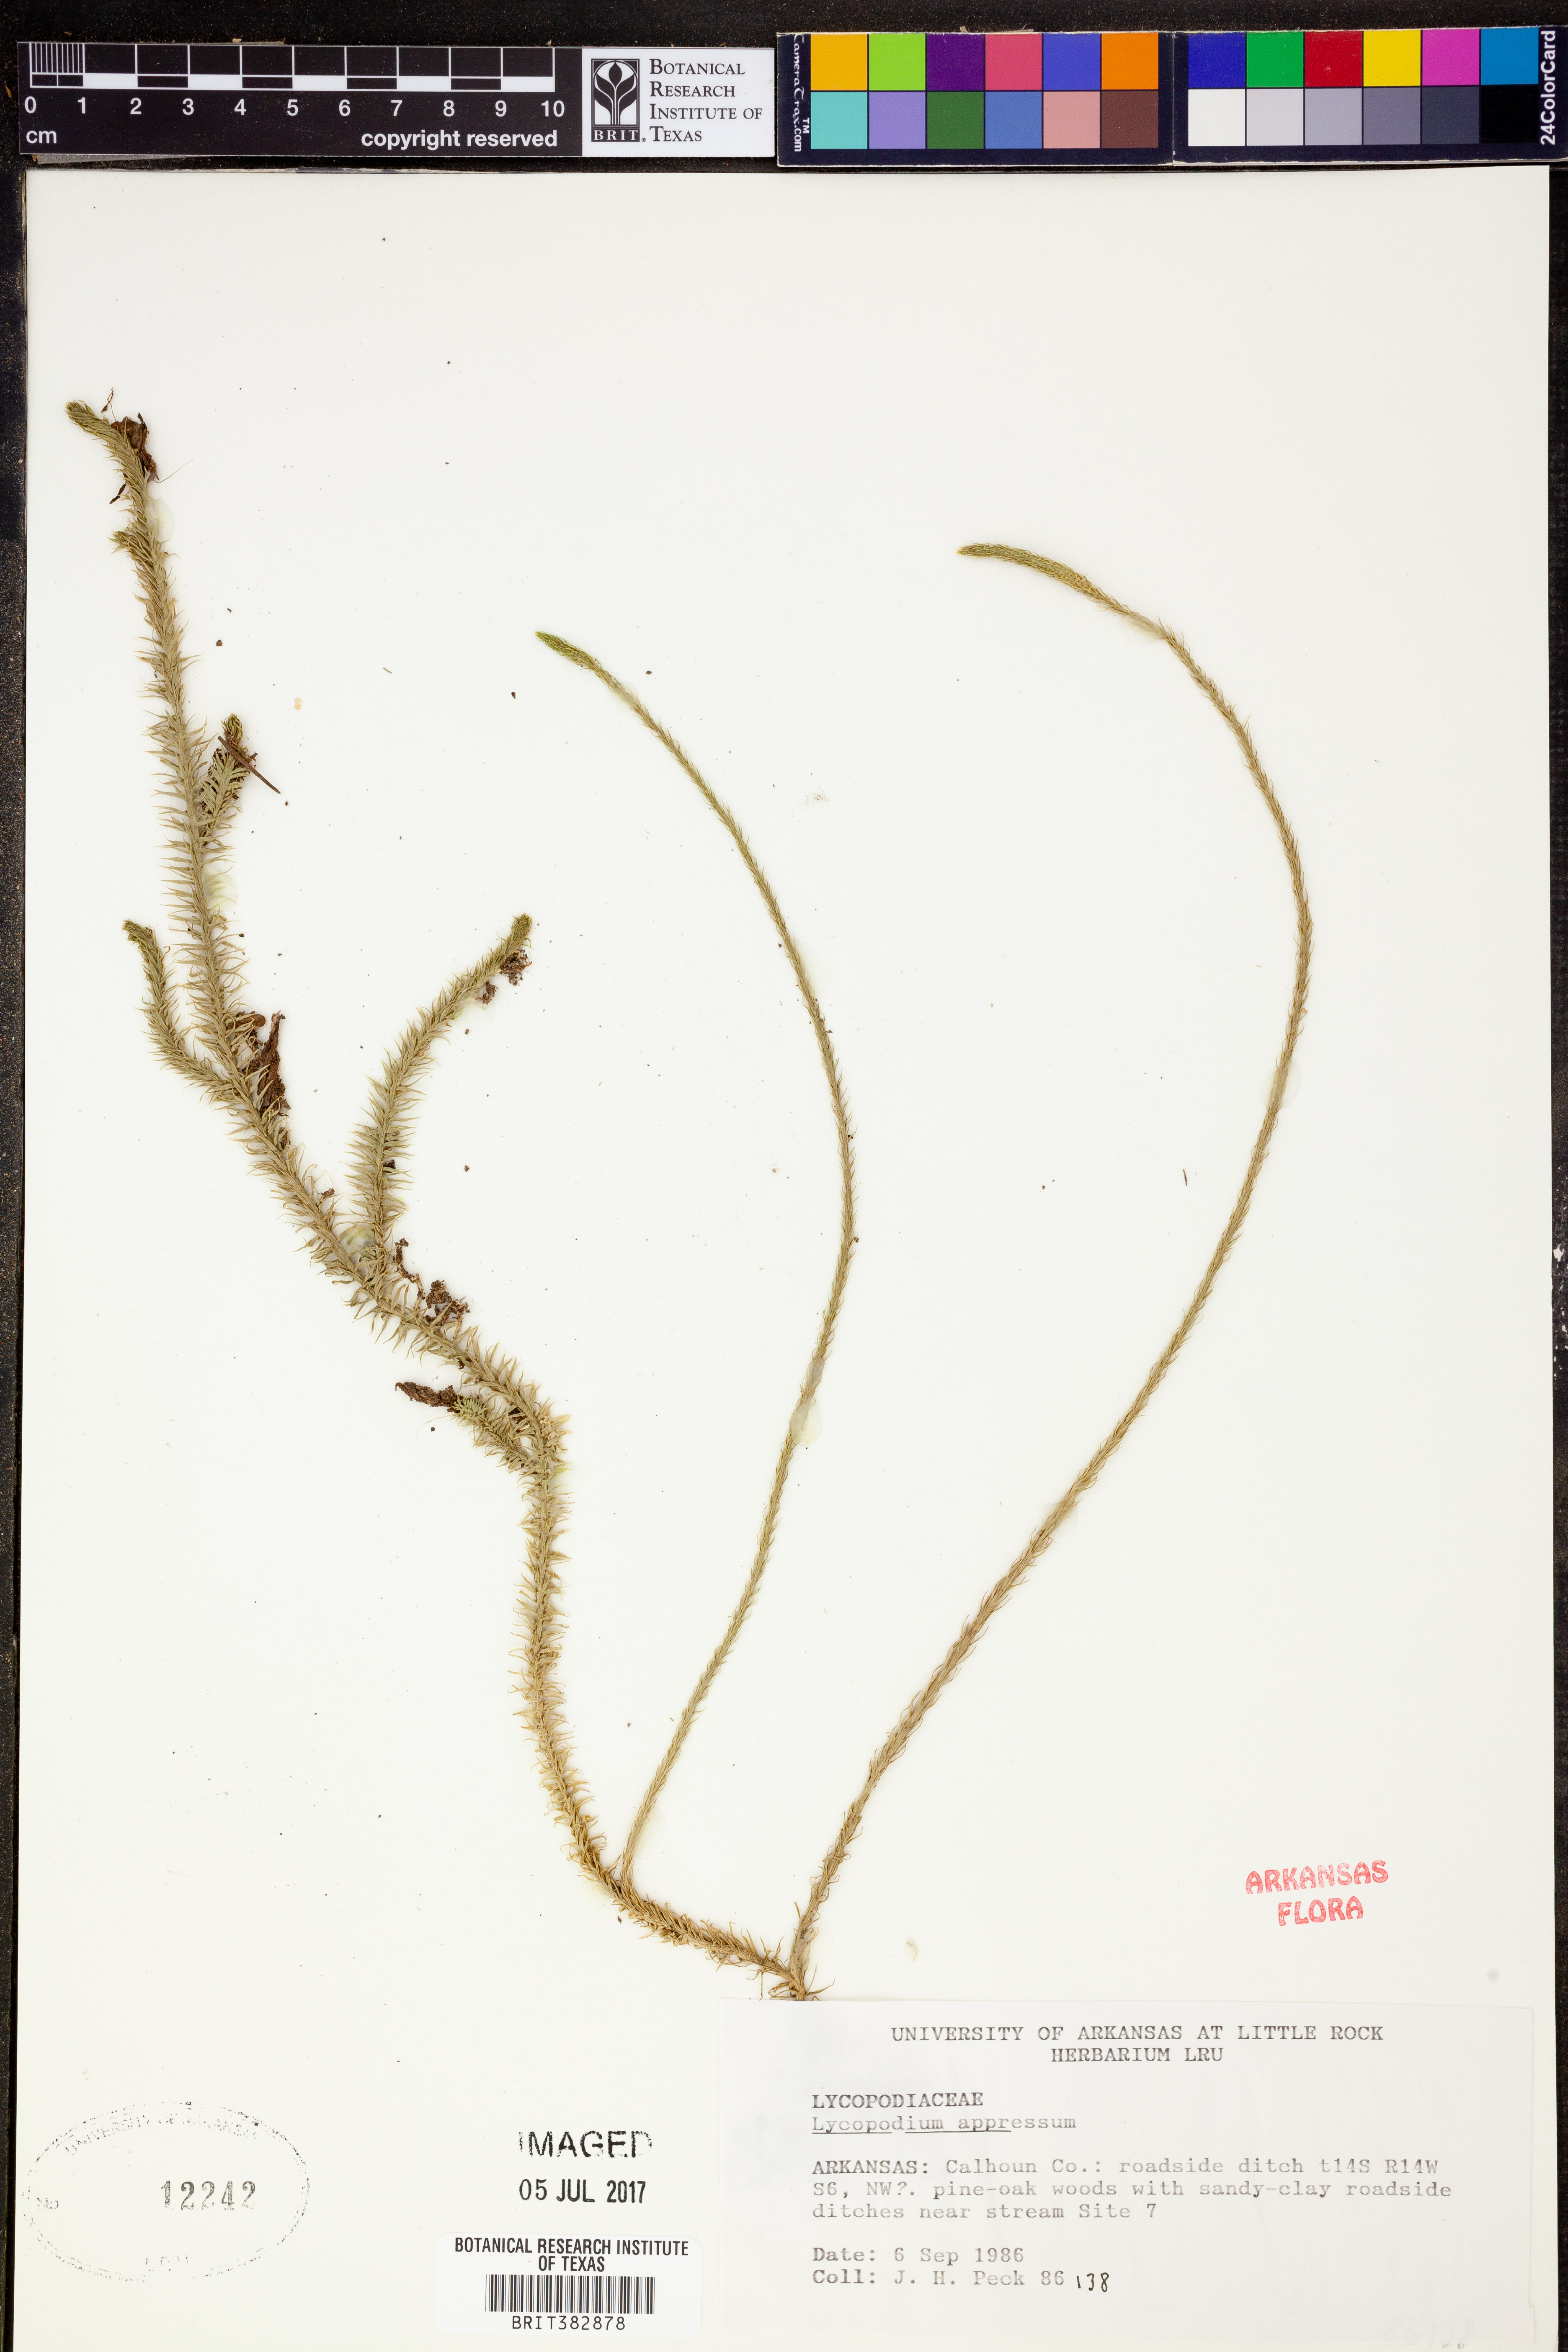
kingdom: Plantae
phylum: Tracheophyta
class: Lycopodiopsida
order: Lycopodiales
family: Lycopodiaceae
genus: Lycopodiella
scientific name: Lycopodiella appressa
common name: Appressed bog clubmoss
